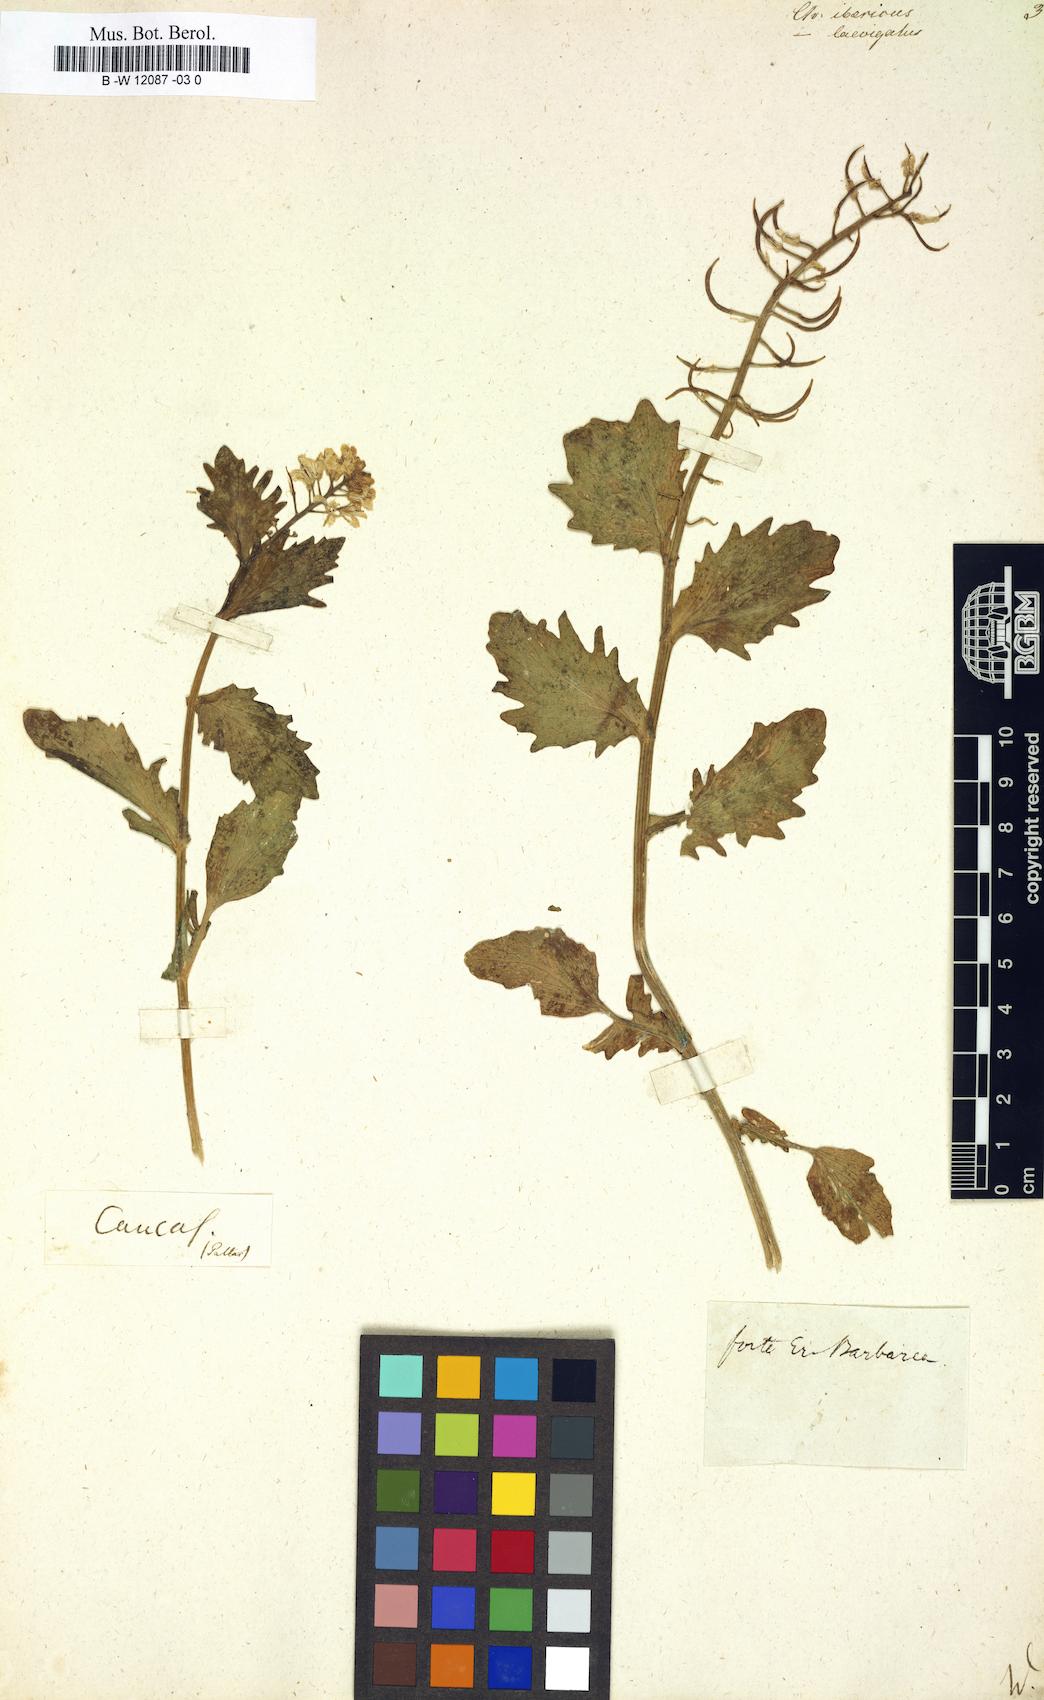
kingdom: Plantae
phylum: Tracheophyta
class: Magnoliopsida
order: Brassicales
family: Brassicaceae
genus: Erysimum
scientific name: Erysimum ibericum
